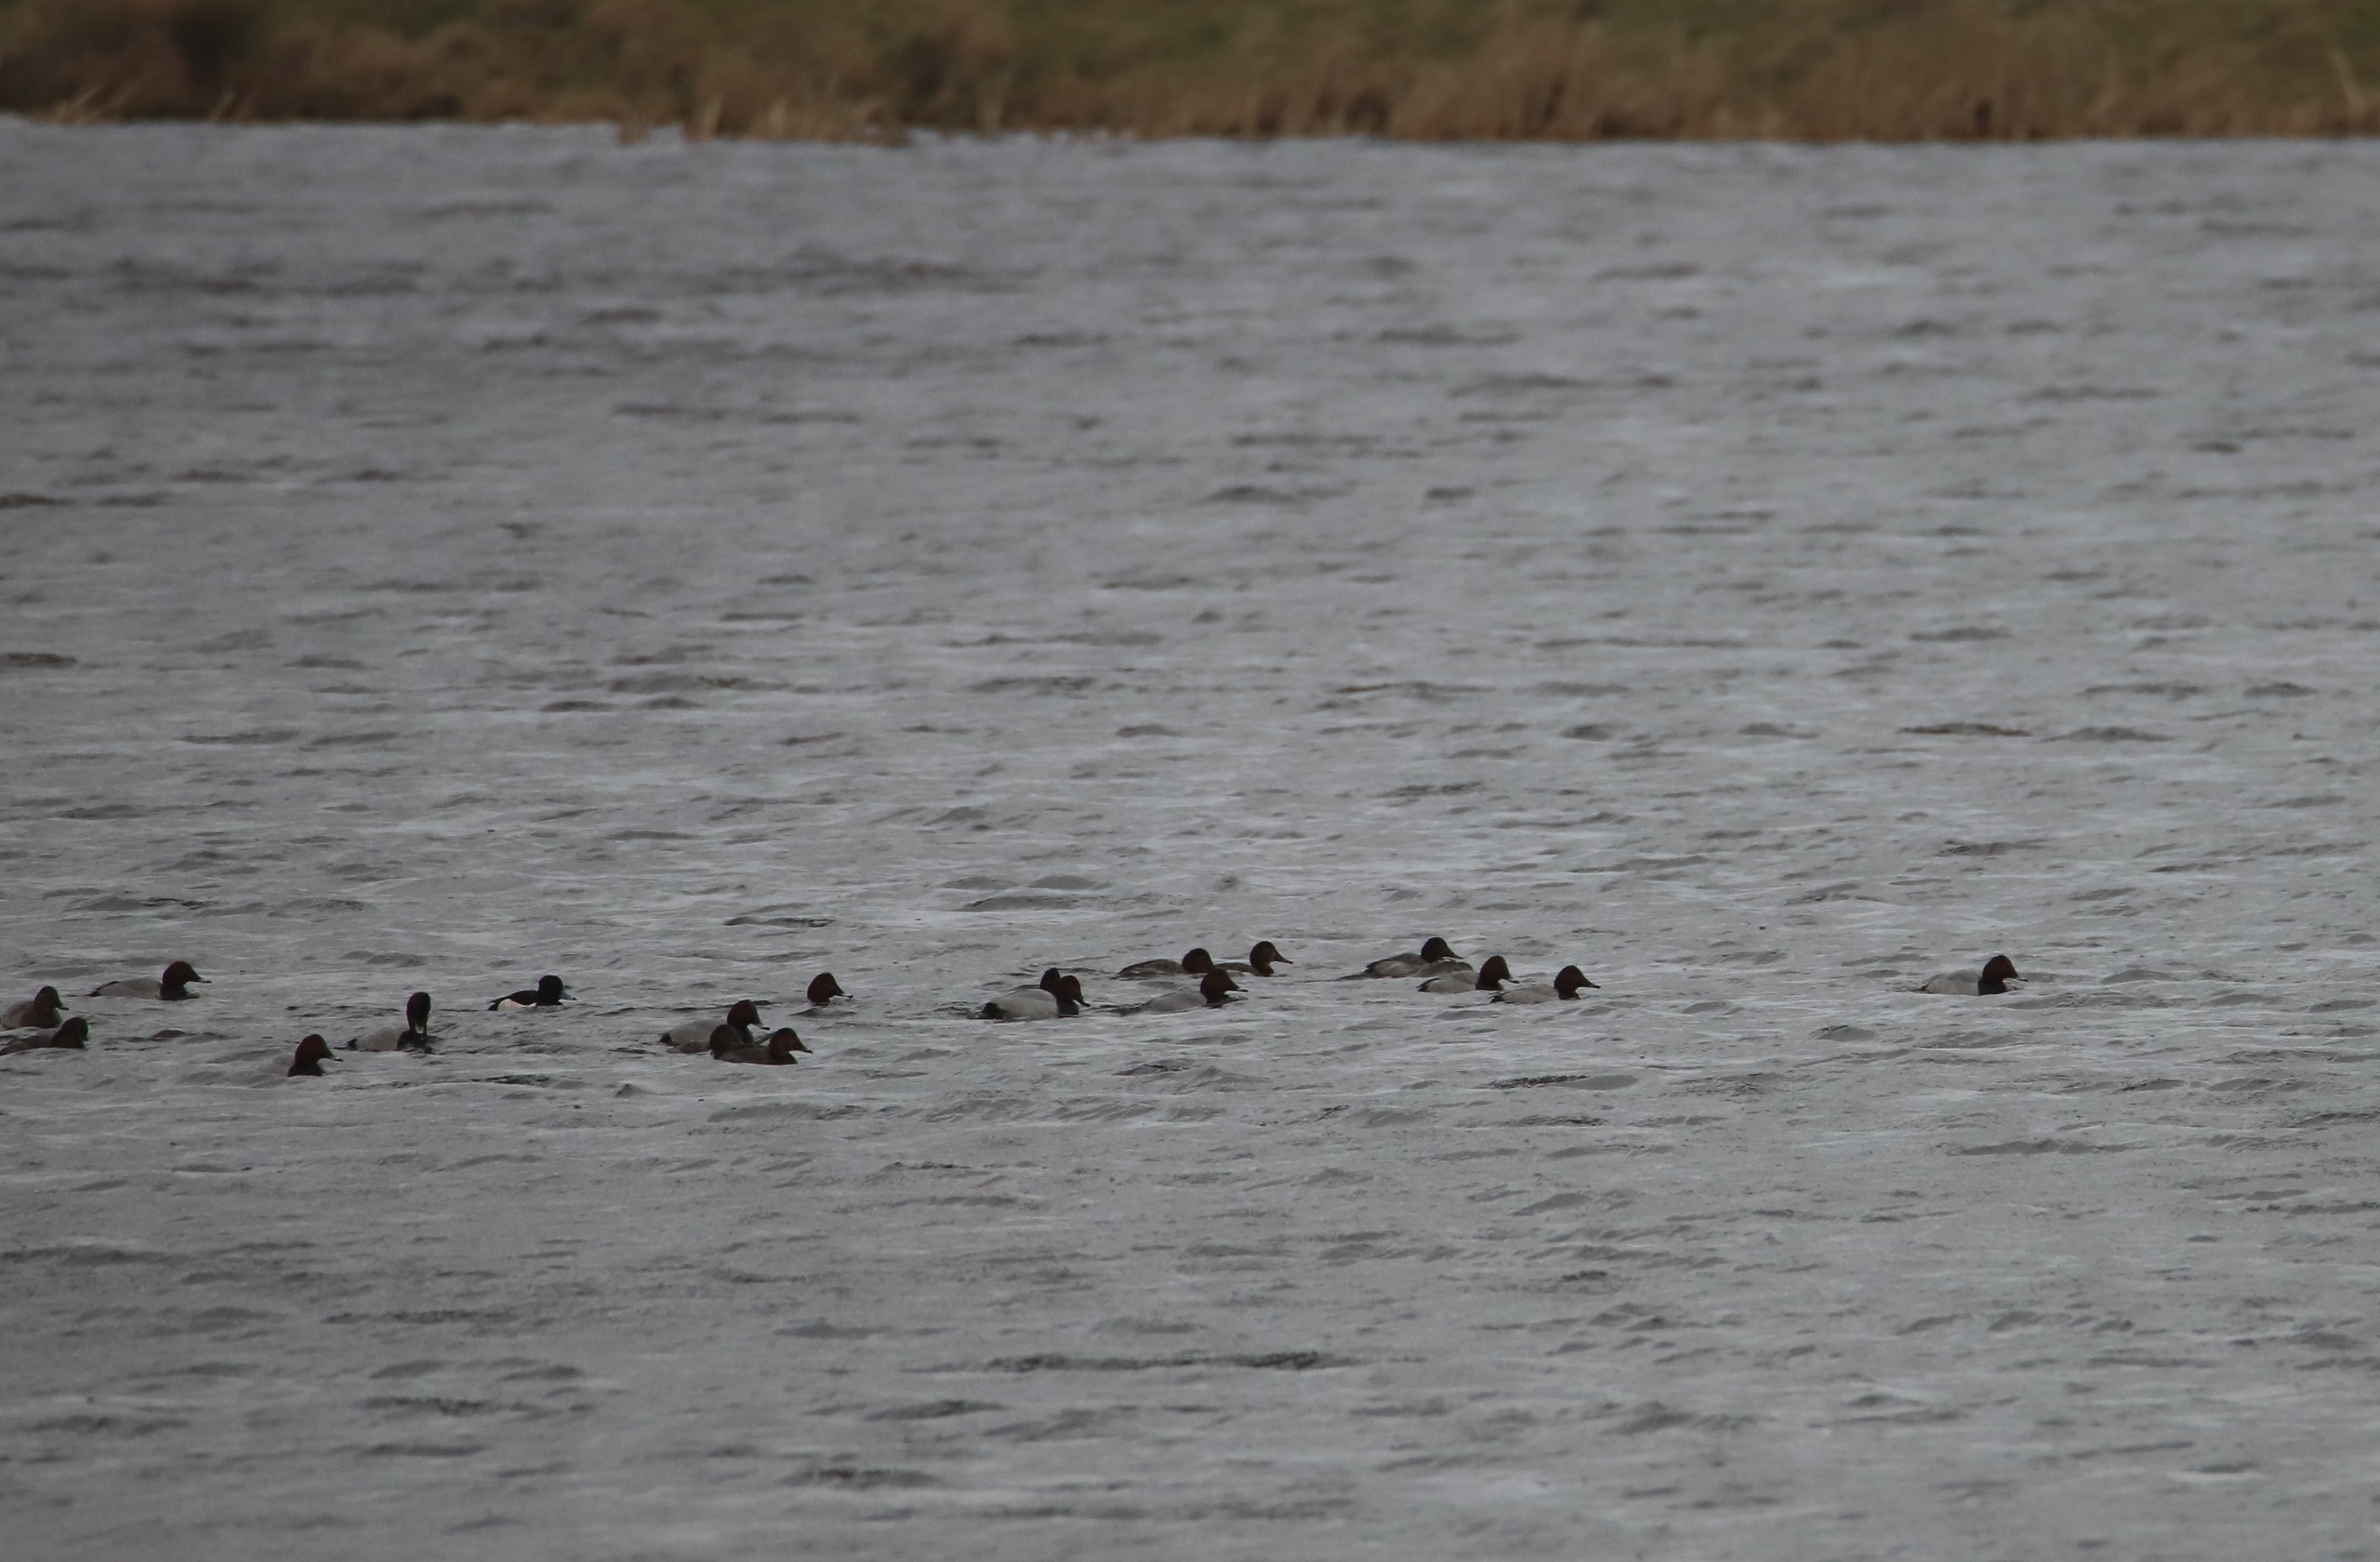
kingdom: Animalia
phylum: Chordata
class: Aves
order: Anseriformes
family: Anatidae
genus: Aythya
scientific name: Aythya ferina
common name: Taffeland
